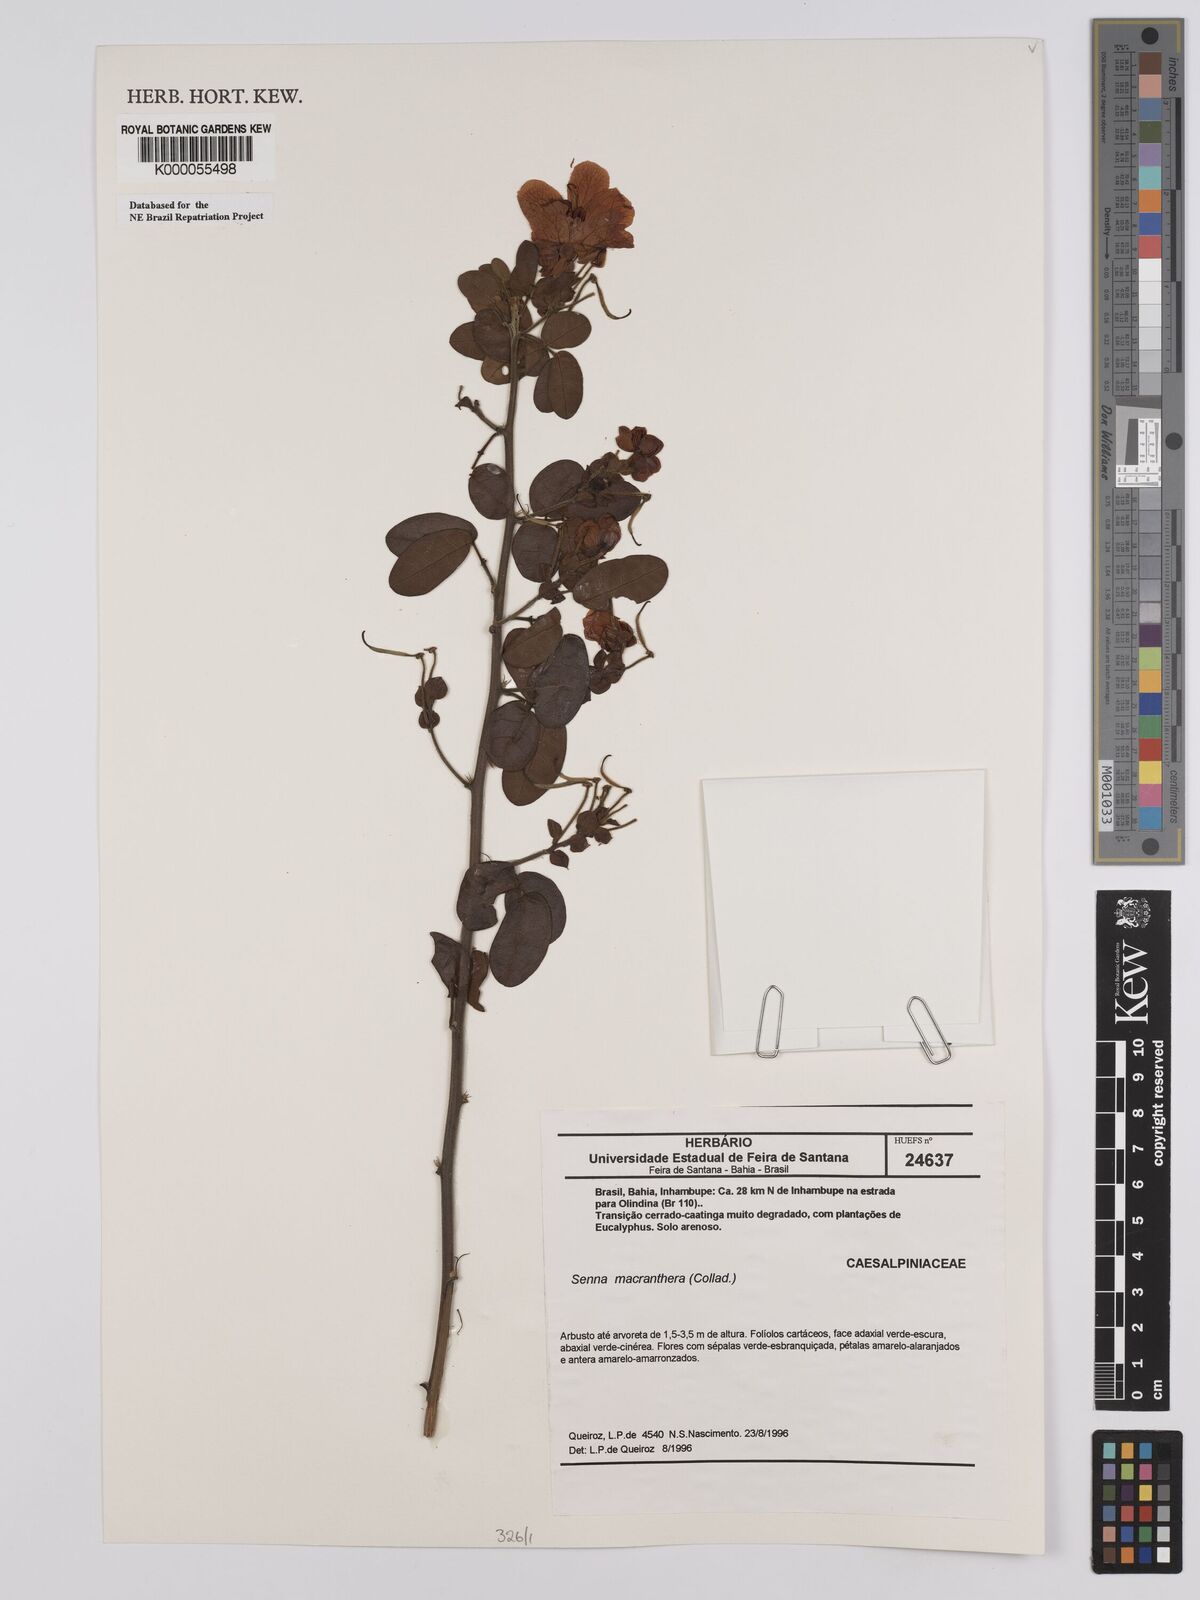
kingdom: Plantae
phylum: Tracheophyta
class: Magnoliopsida
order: Fabales
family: Fabaceae
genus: Senna
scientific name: Senna rizzinii
